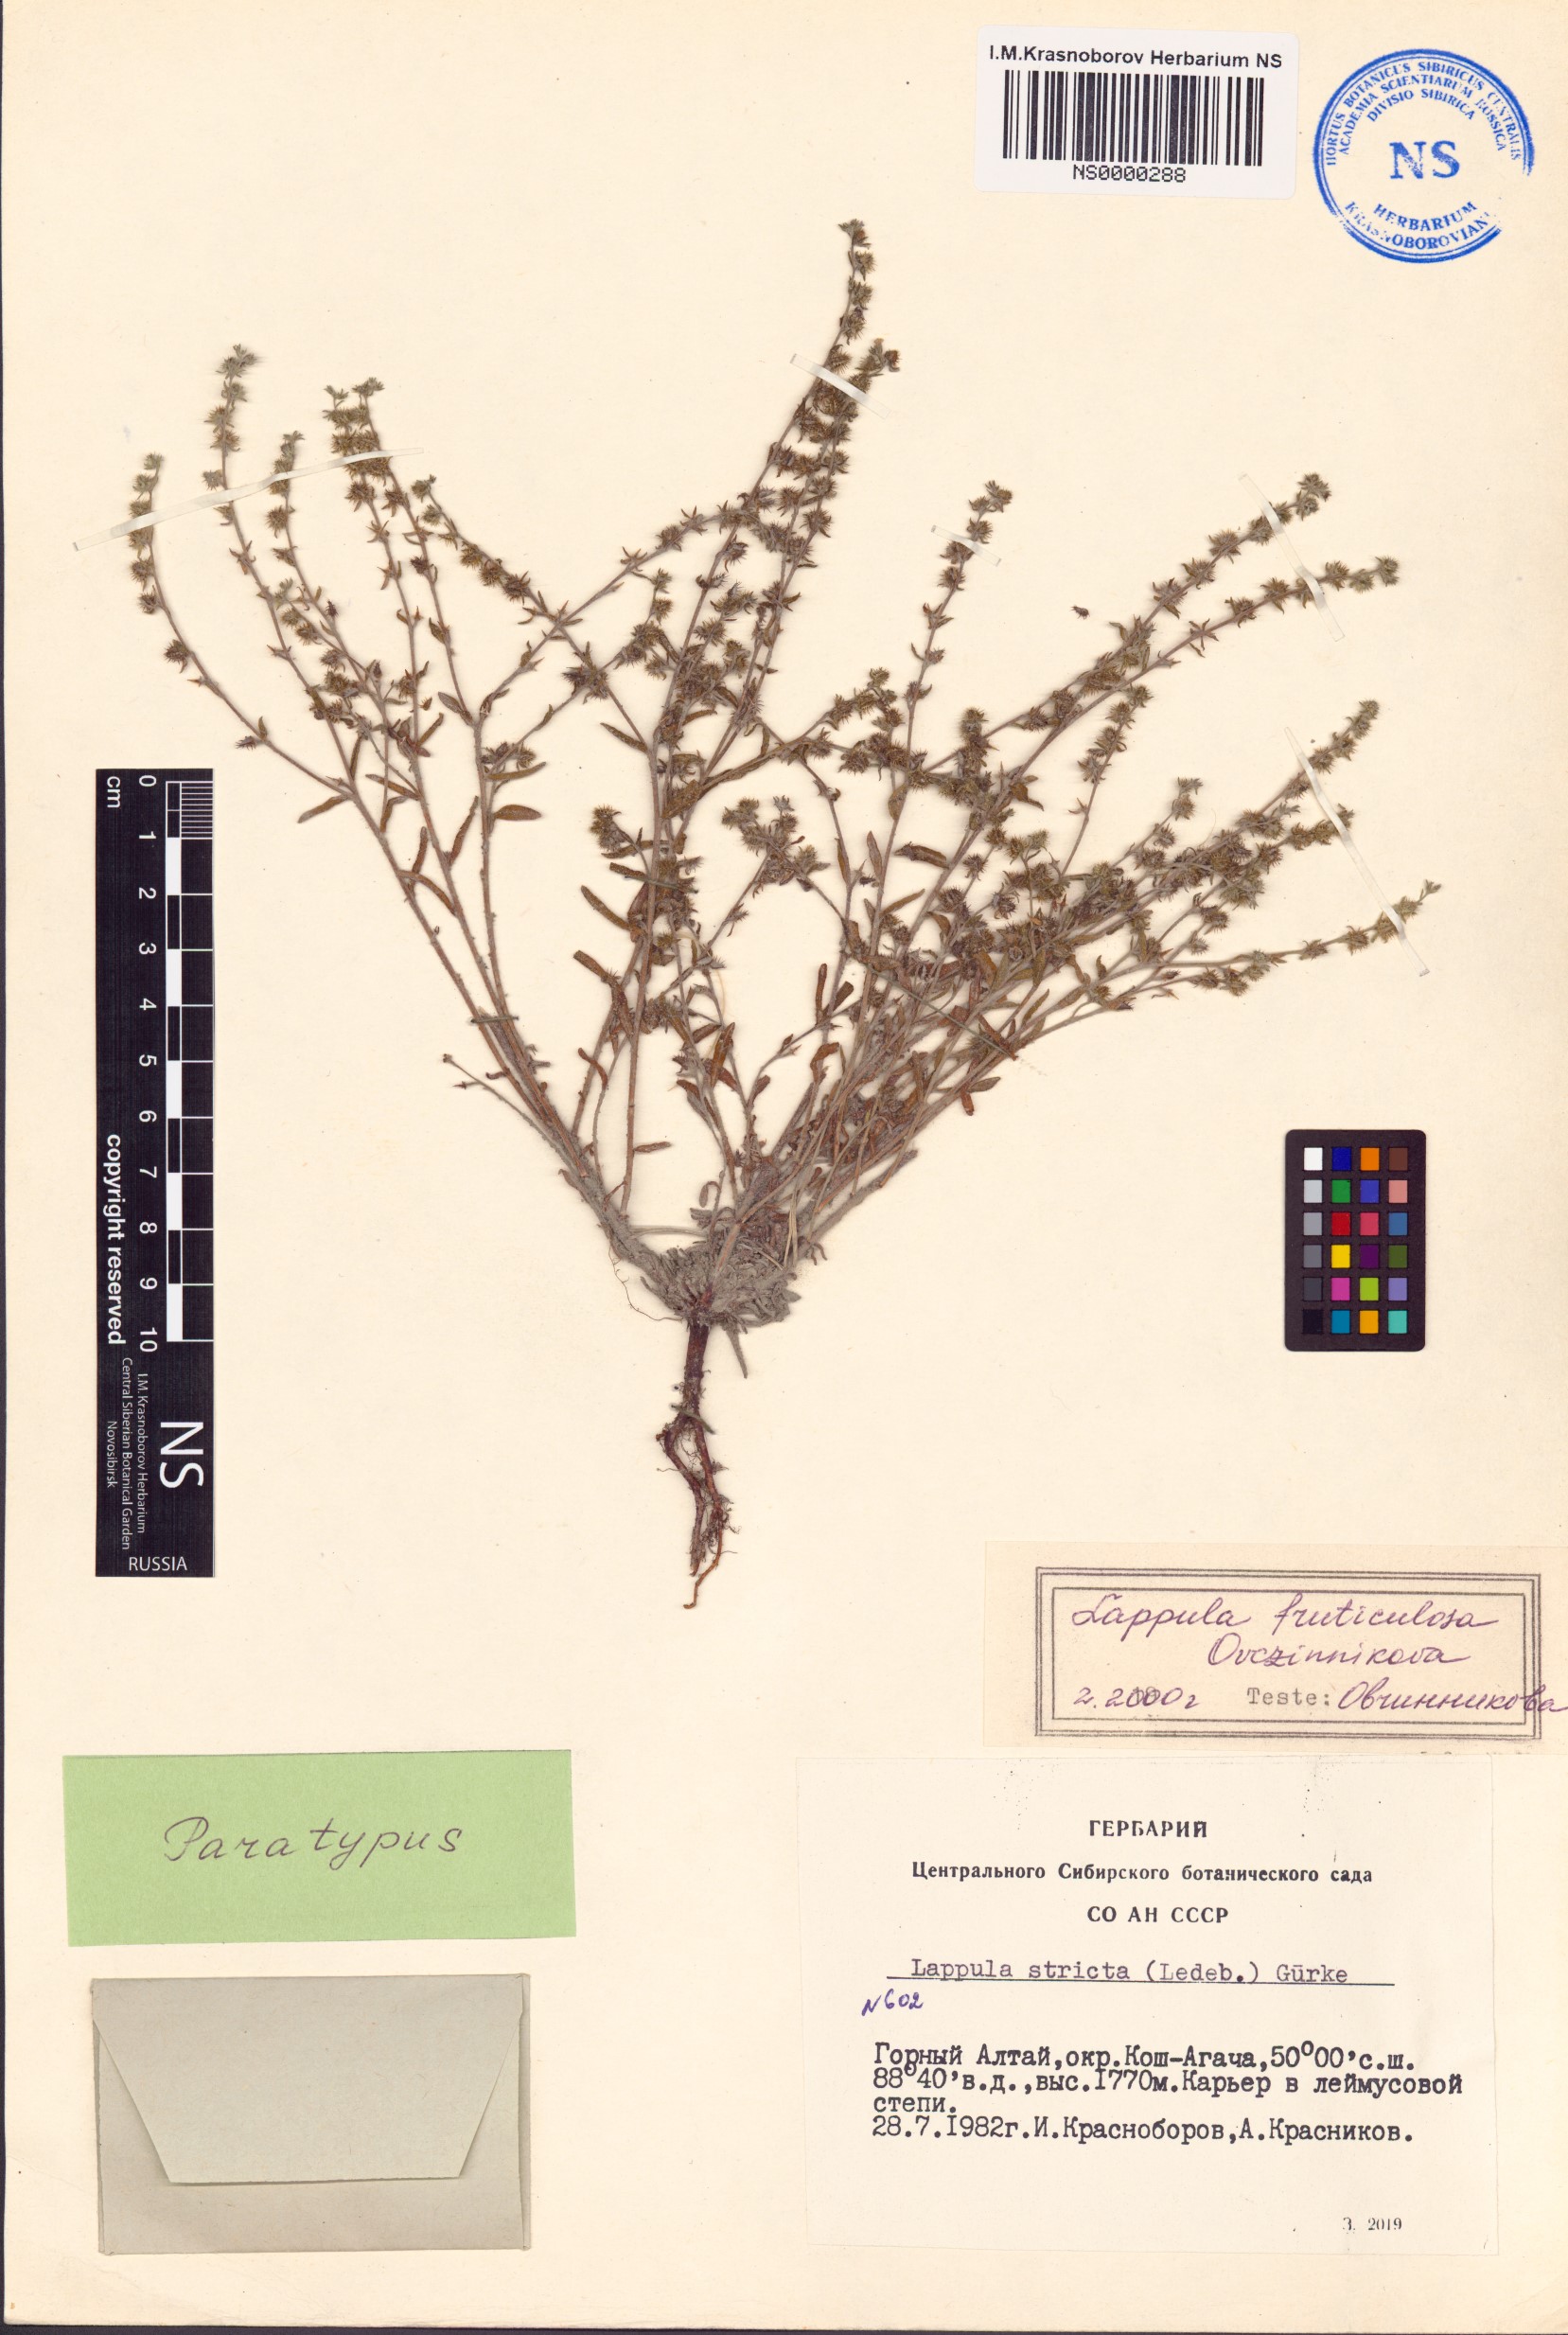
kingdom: Plantae
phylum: Tracheophyta
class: Magnoliopsida
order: Boraginales
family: Boraginaceae
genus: Lappula
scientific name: Lappula fruticulosa
